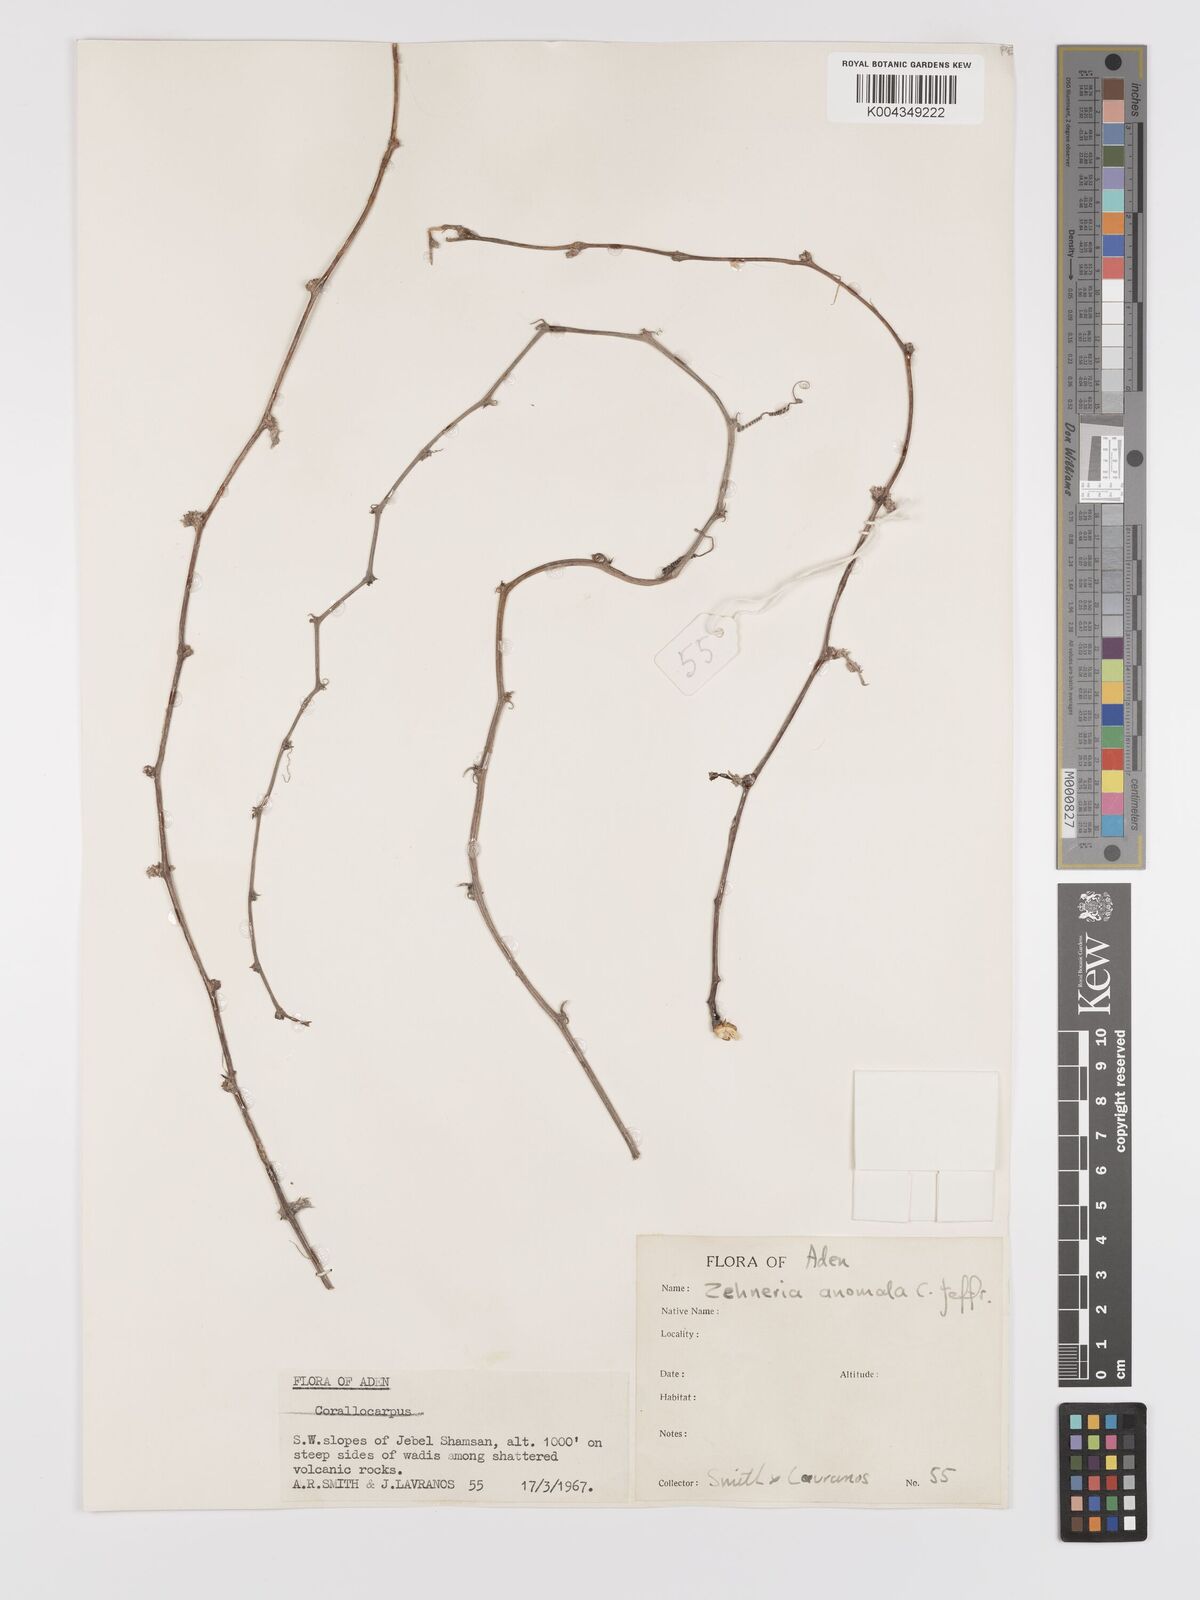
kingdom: Plantae
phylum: Tracheophyta
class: Magnoliopsida
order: Cucurbitales
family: Cucurbitaceae
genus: Zehneria
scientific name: Zehneria anomala
